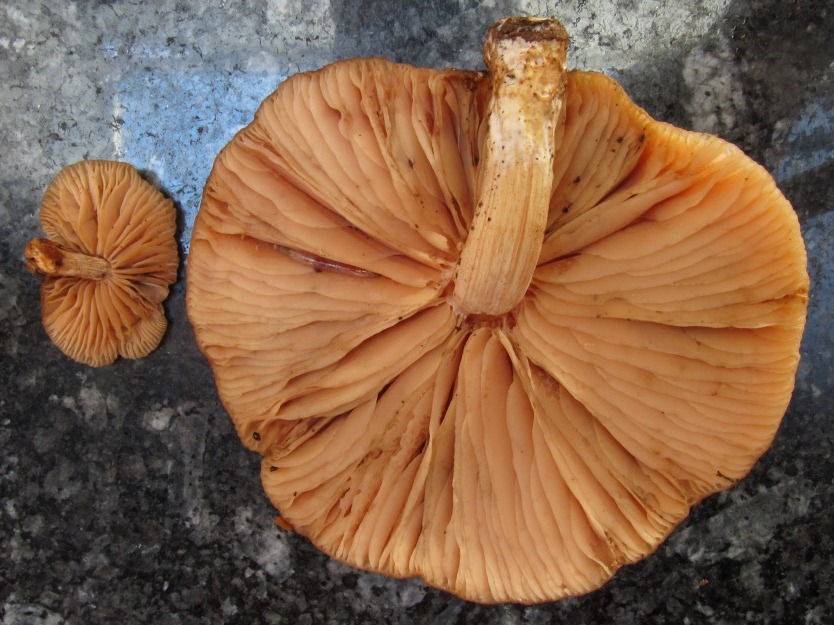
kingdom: Fungi
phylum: Basidiomycota
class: Agaricomycetes
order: Agaricales
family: Physalacriaceae
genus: Rhodotus
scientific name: Rhodotus palmatus
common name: ferskenhat
